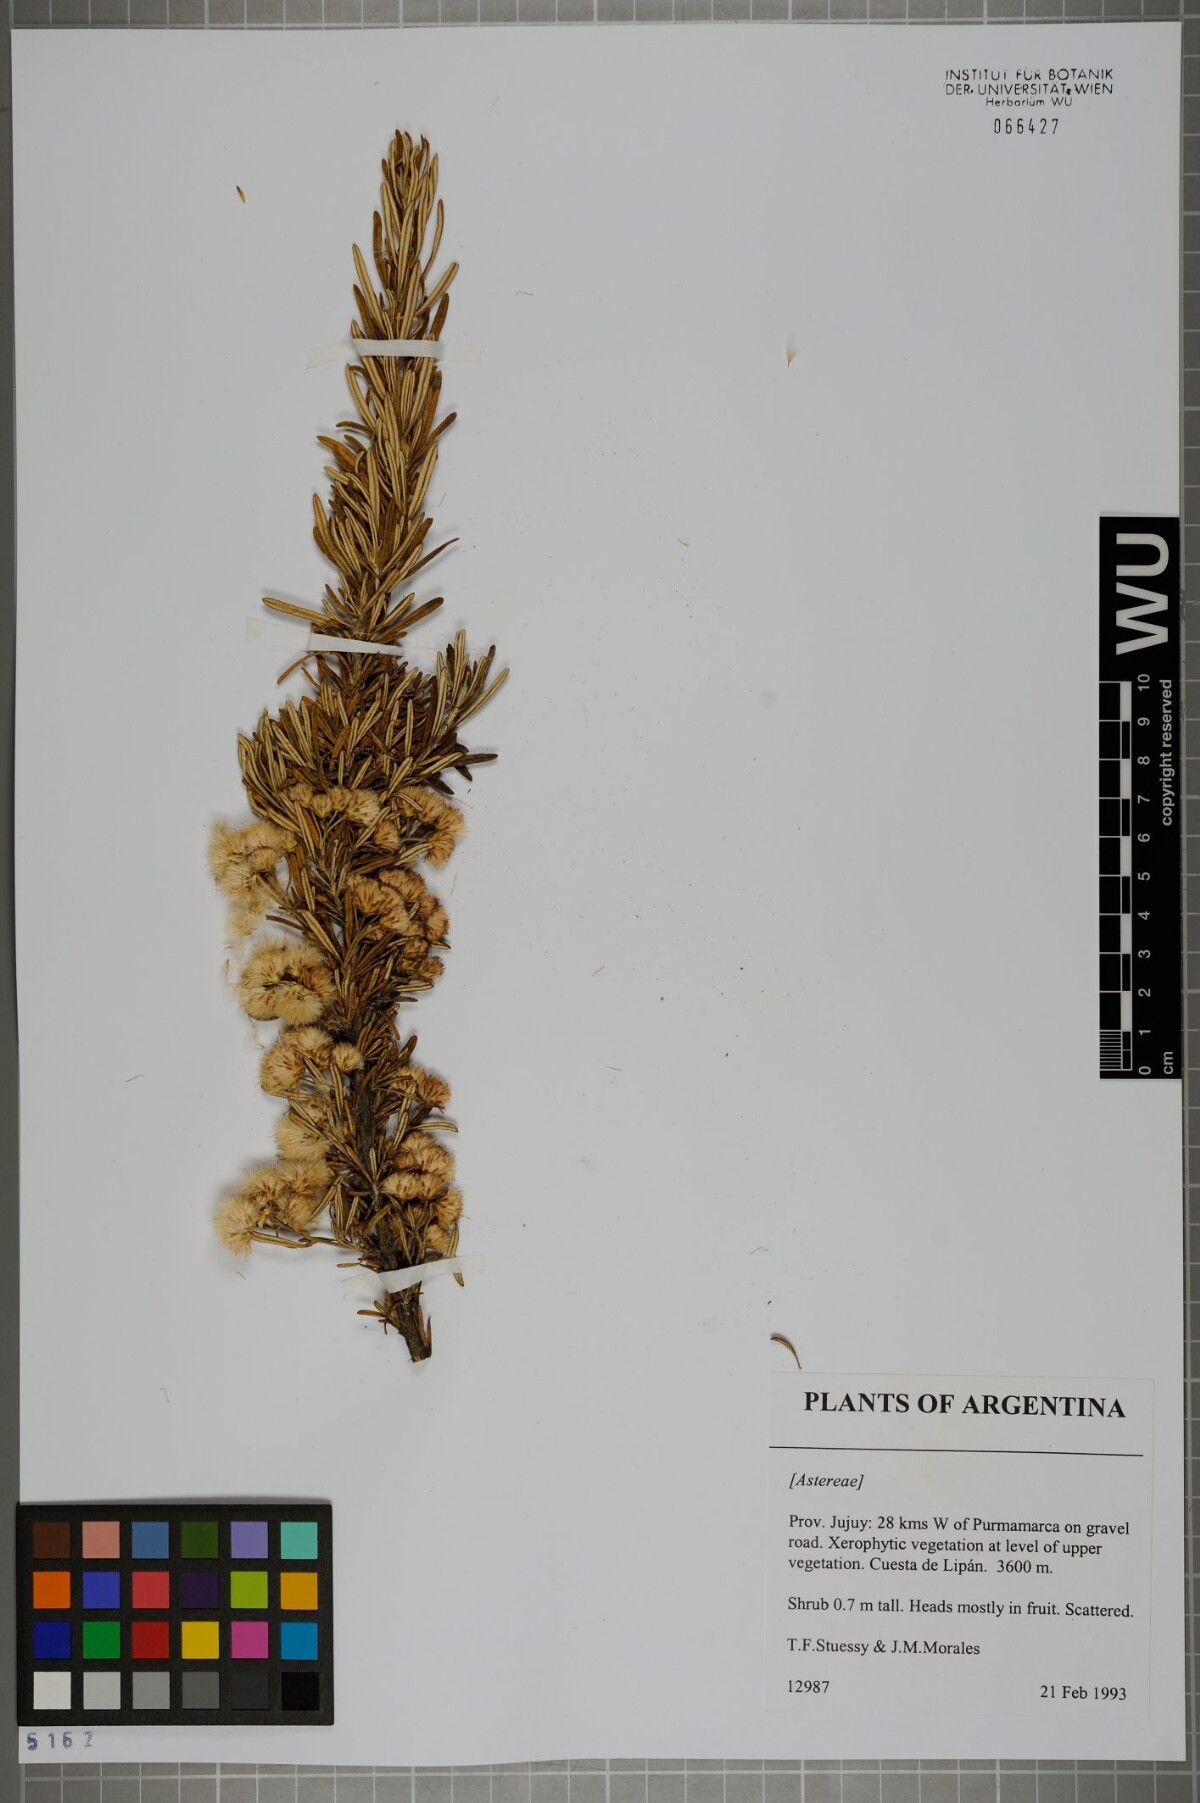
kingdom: Plantae
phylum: Tracheophyta
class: Magnoliopsida
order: Asterales
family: Asteraceae
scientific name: Asteraceae
